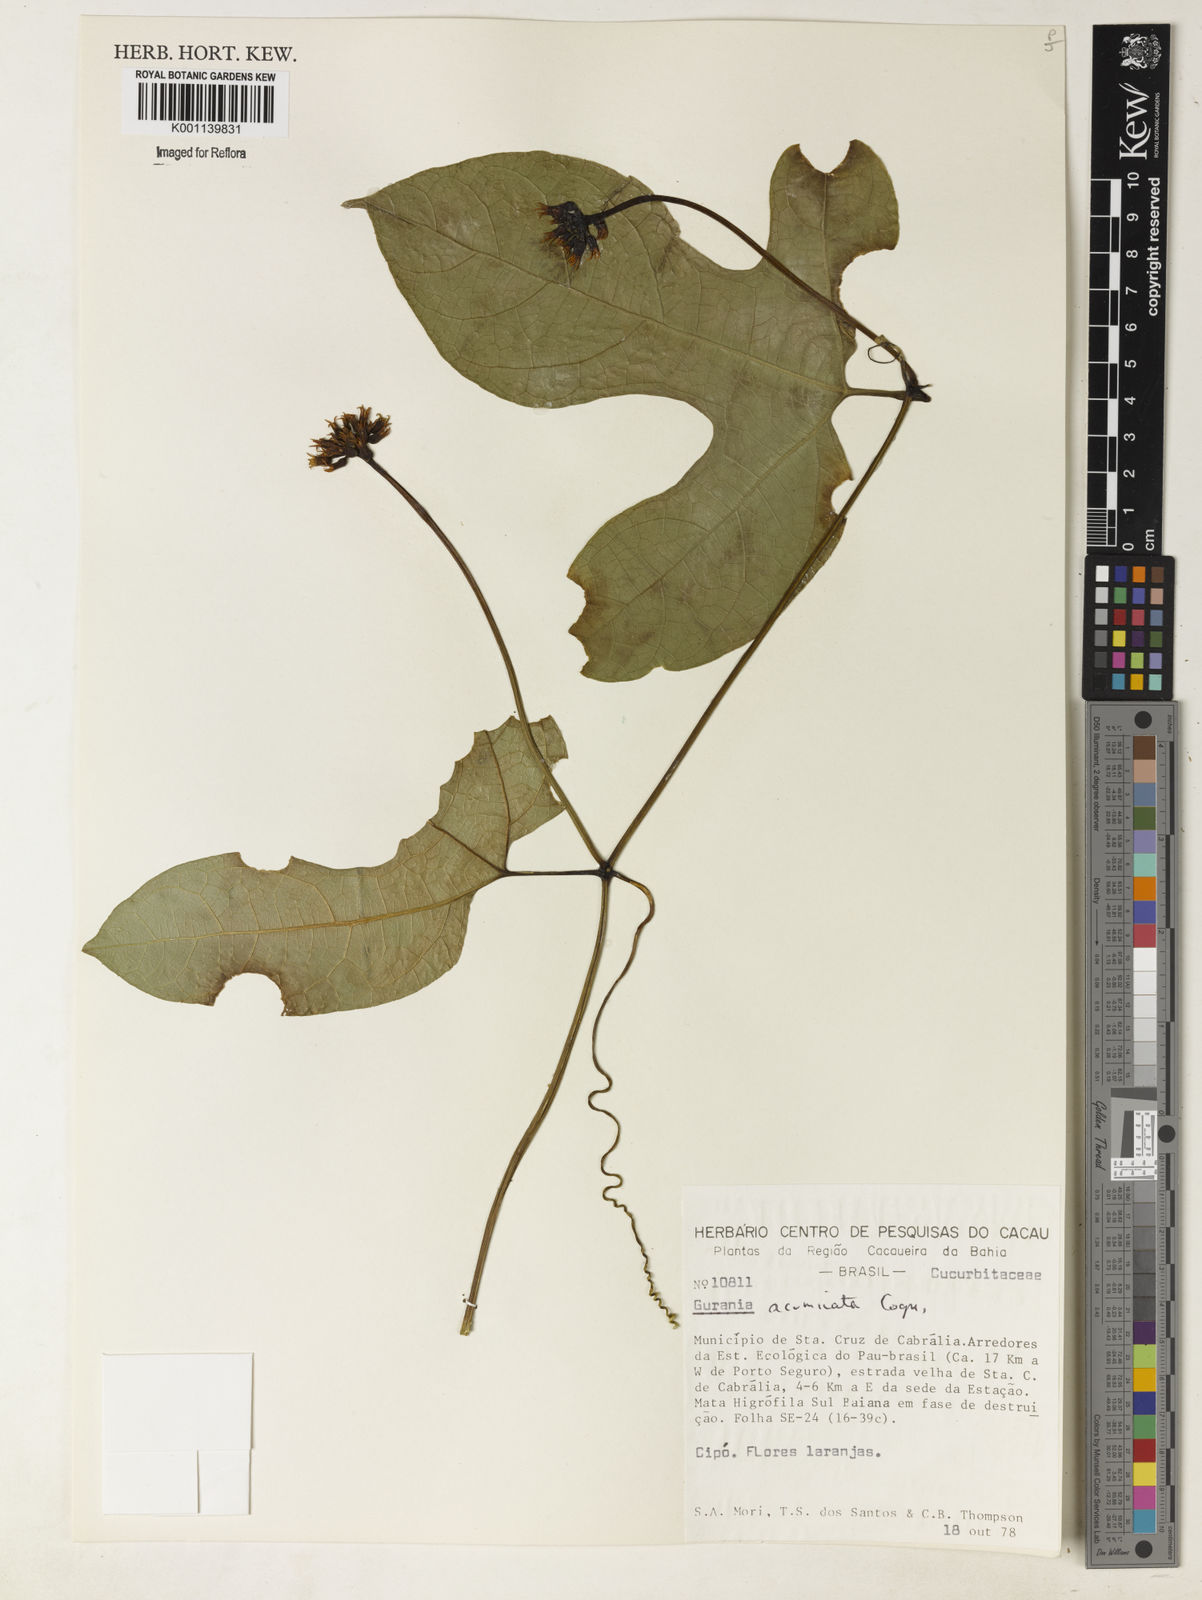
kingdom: Plantae
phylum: Tracheophyta
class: Magnoliopsida
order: Cucurbitales
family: Cucurbitaceae
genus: Gurania
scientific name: Gurania acuminata
